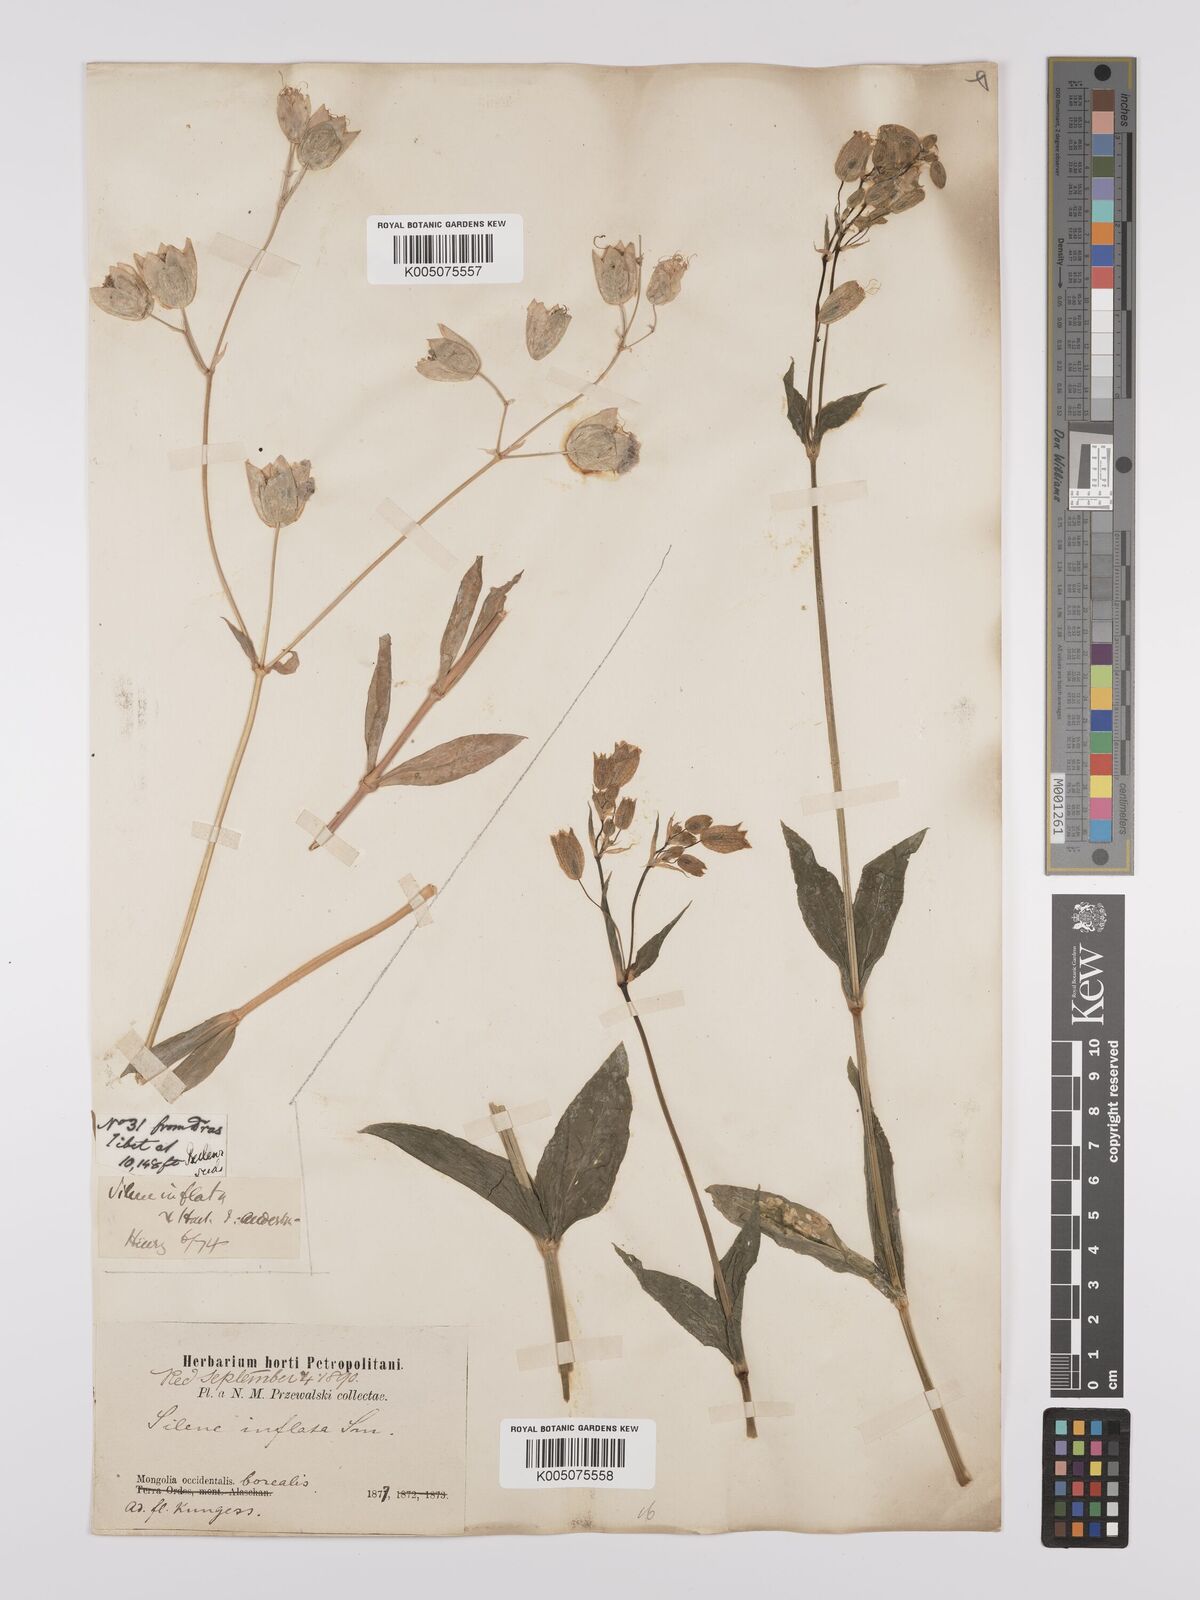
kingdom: Plantae
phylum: Tracheophyta
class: Magnoliopsida
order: Caryophyllales
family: Caryophyllaceae
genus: Silene
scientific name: Silene vulgaris
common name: Bladder campion
